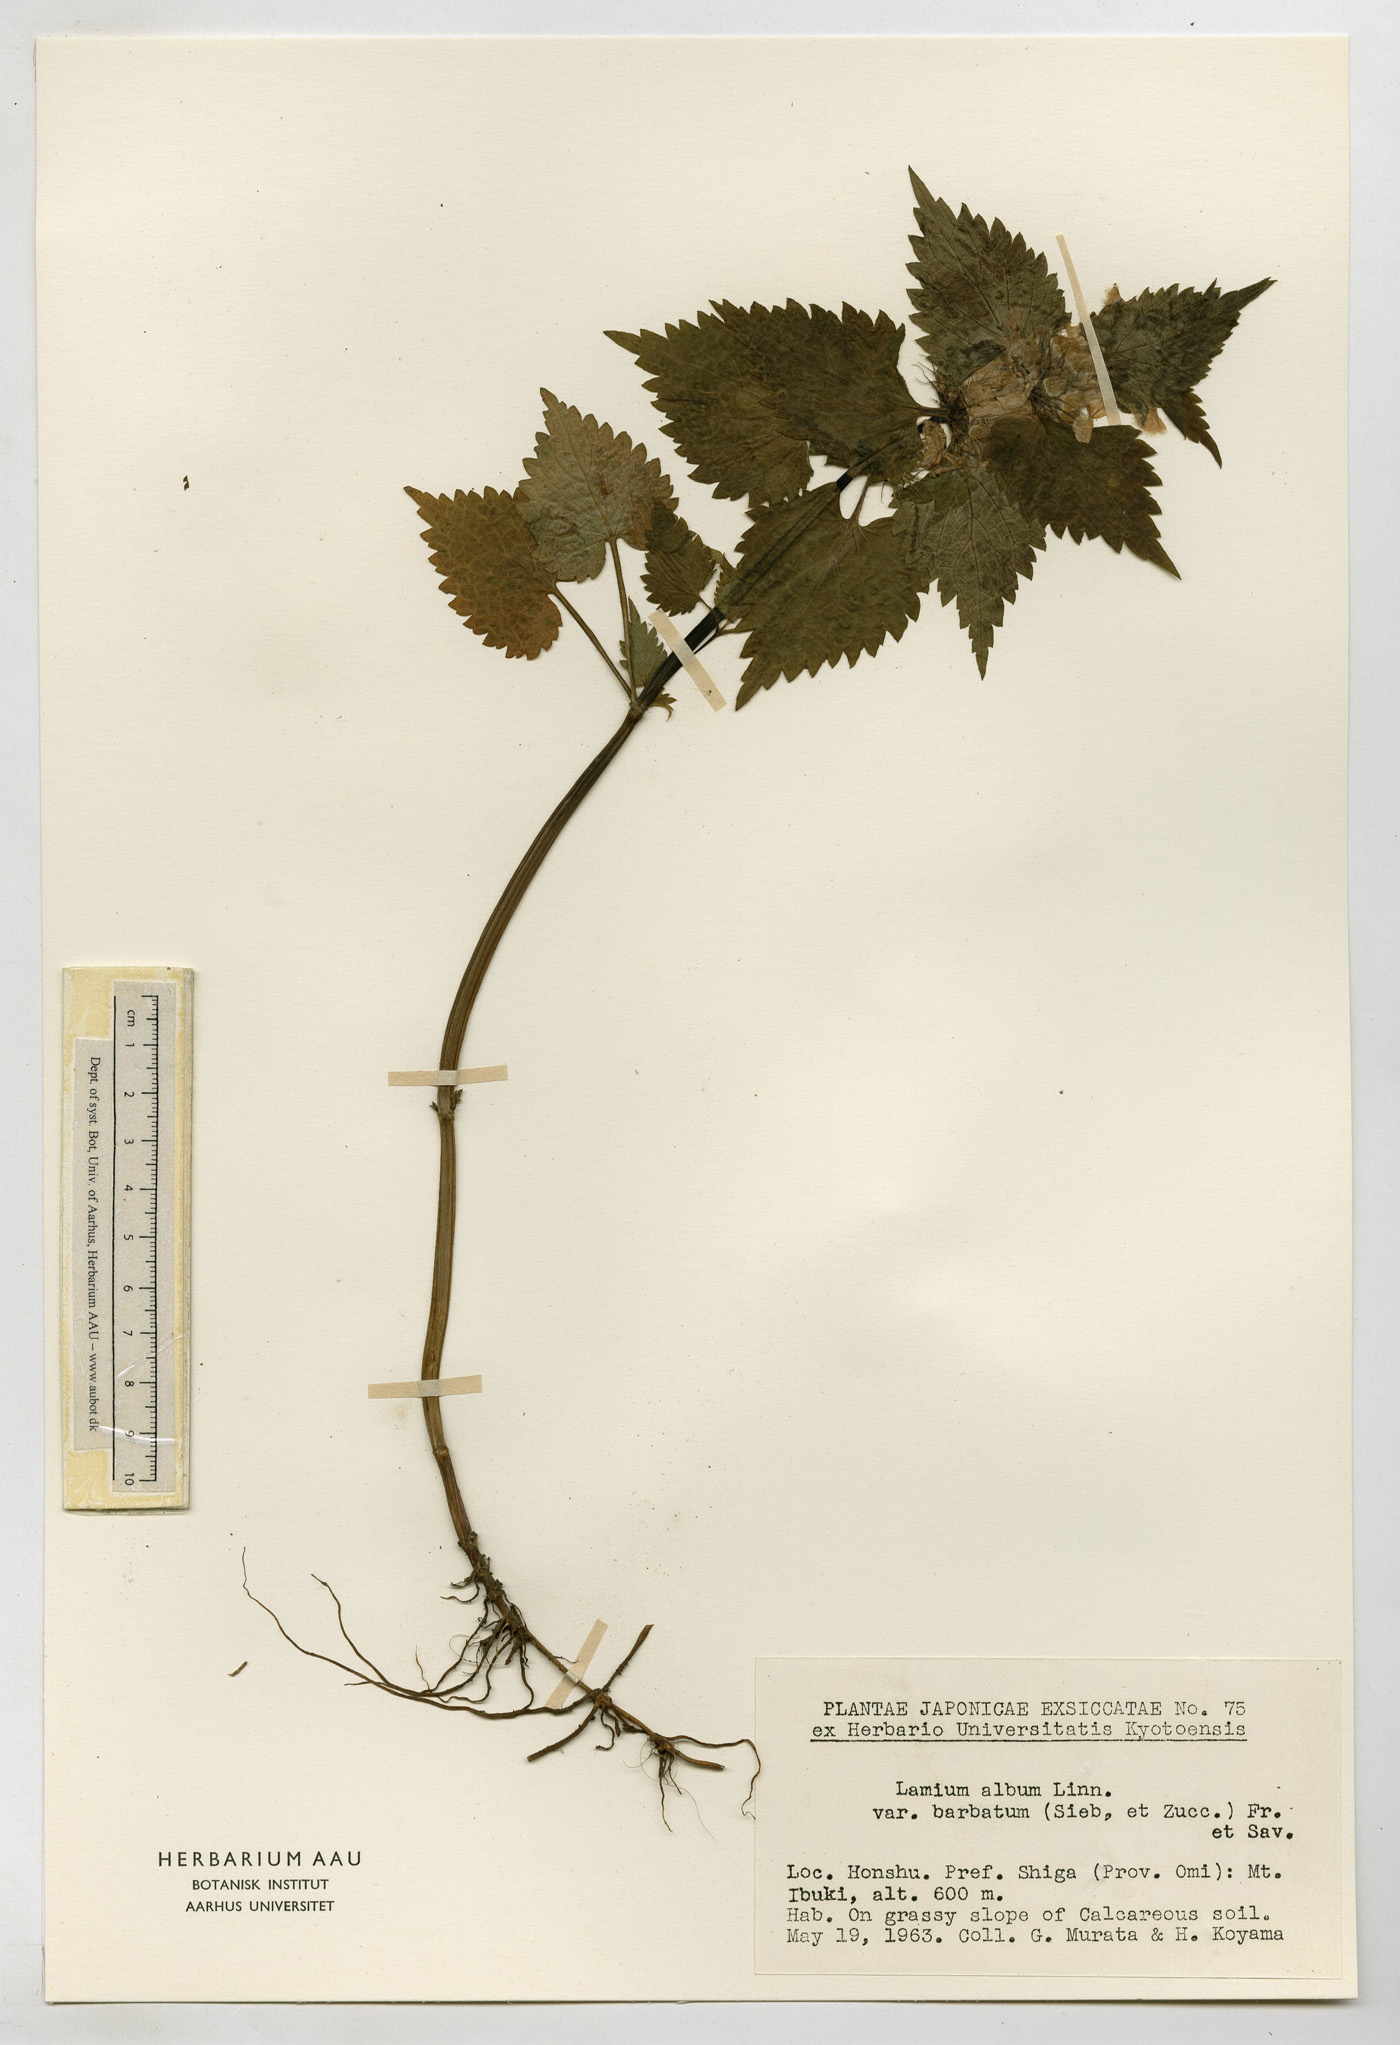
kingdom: Plantae
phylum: Tracheophyta
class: Magnoliopsida
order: Lamiales
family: Lamiaceae
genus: Lamium
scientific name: Lamium album
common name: White dead-nettle
